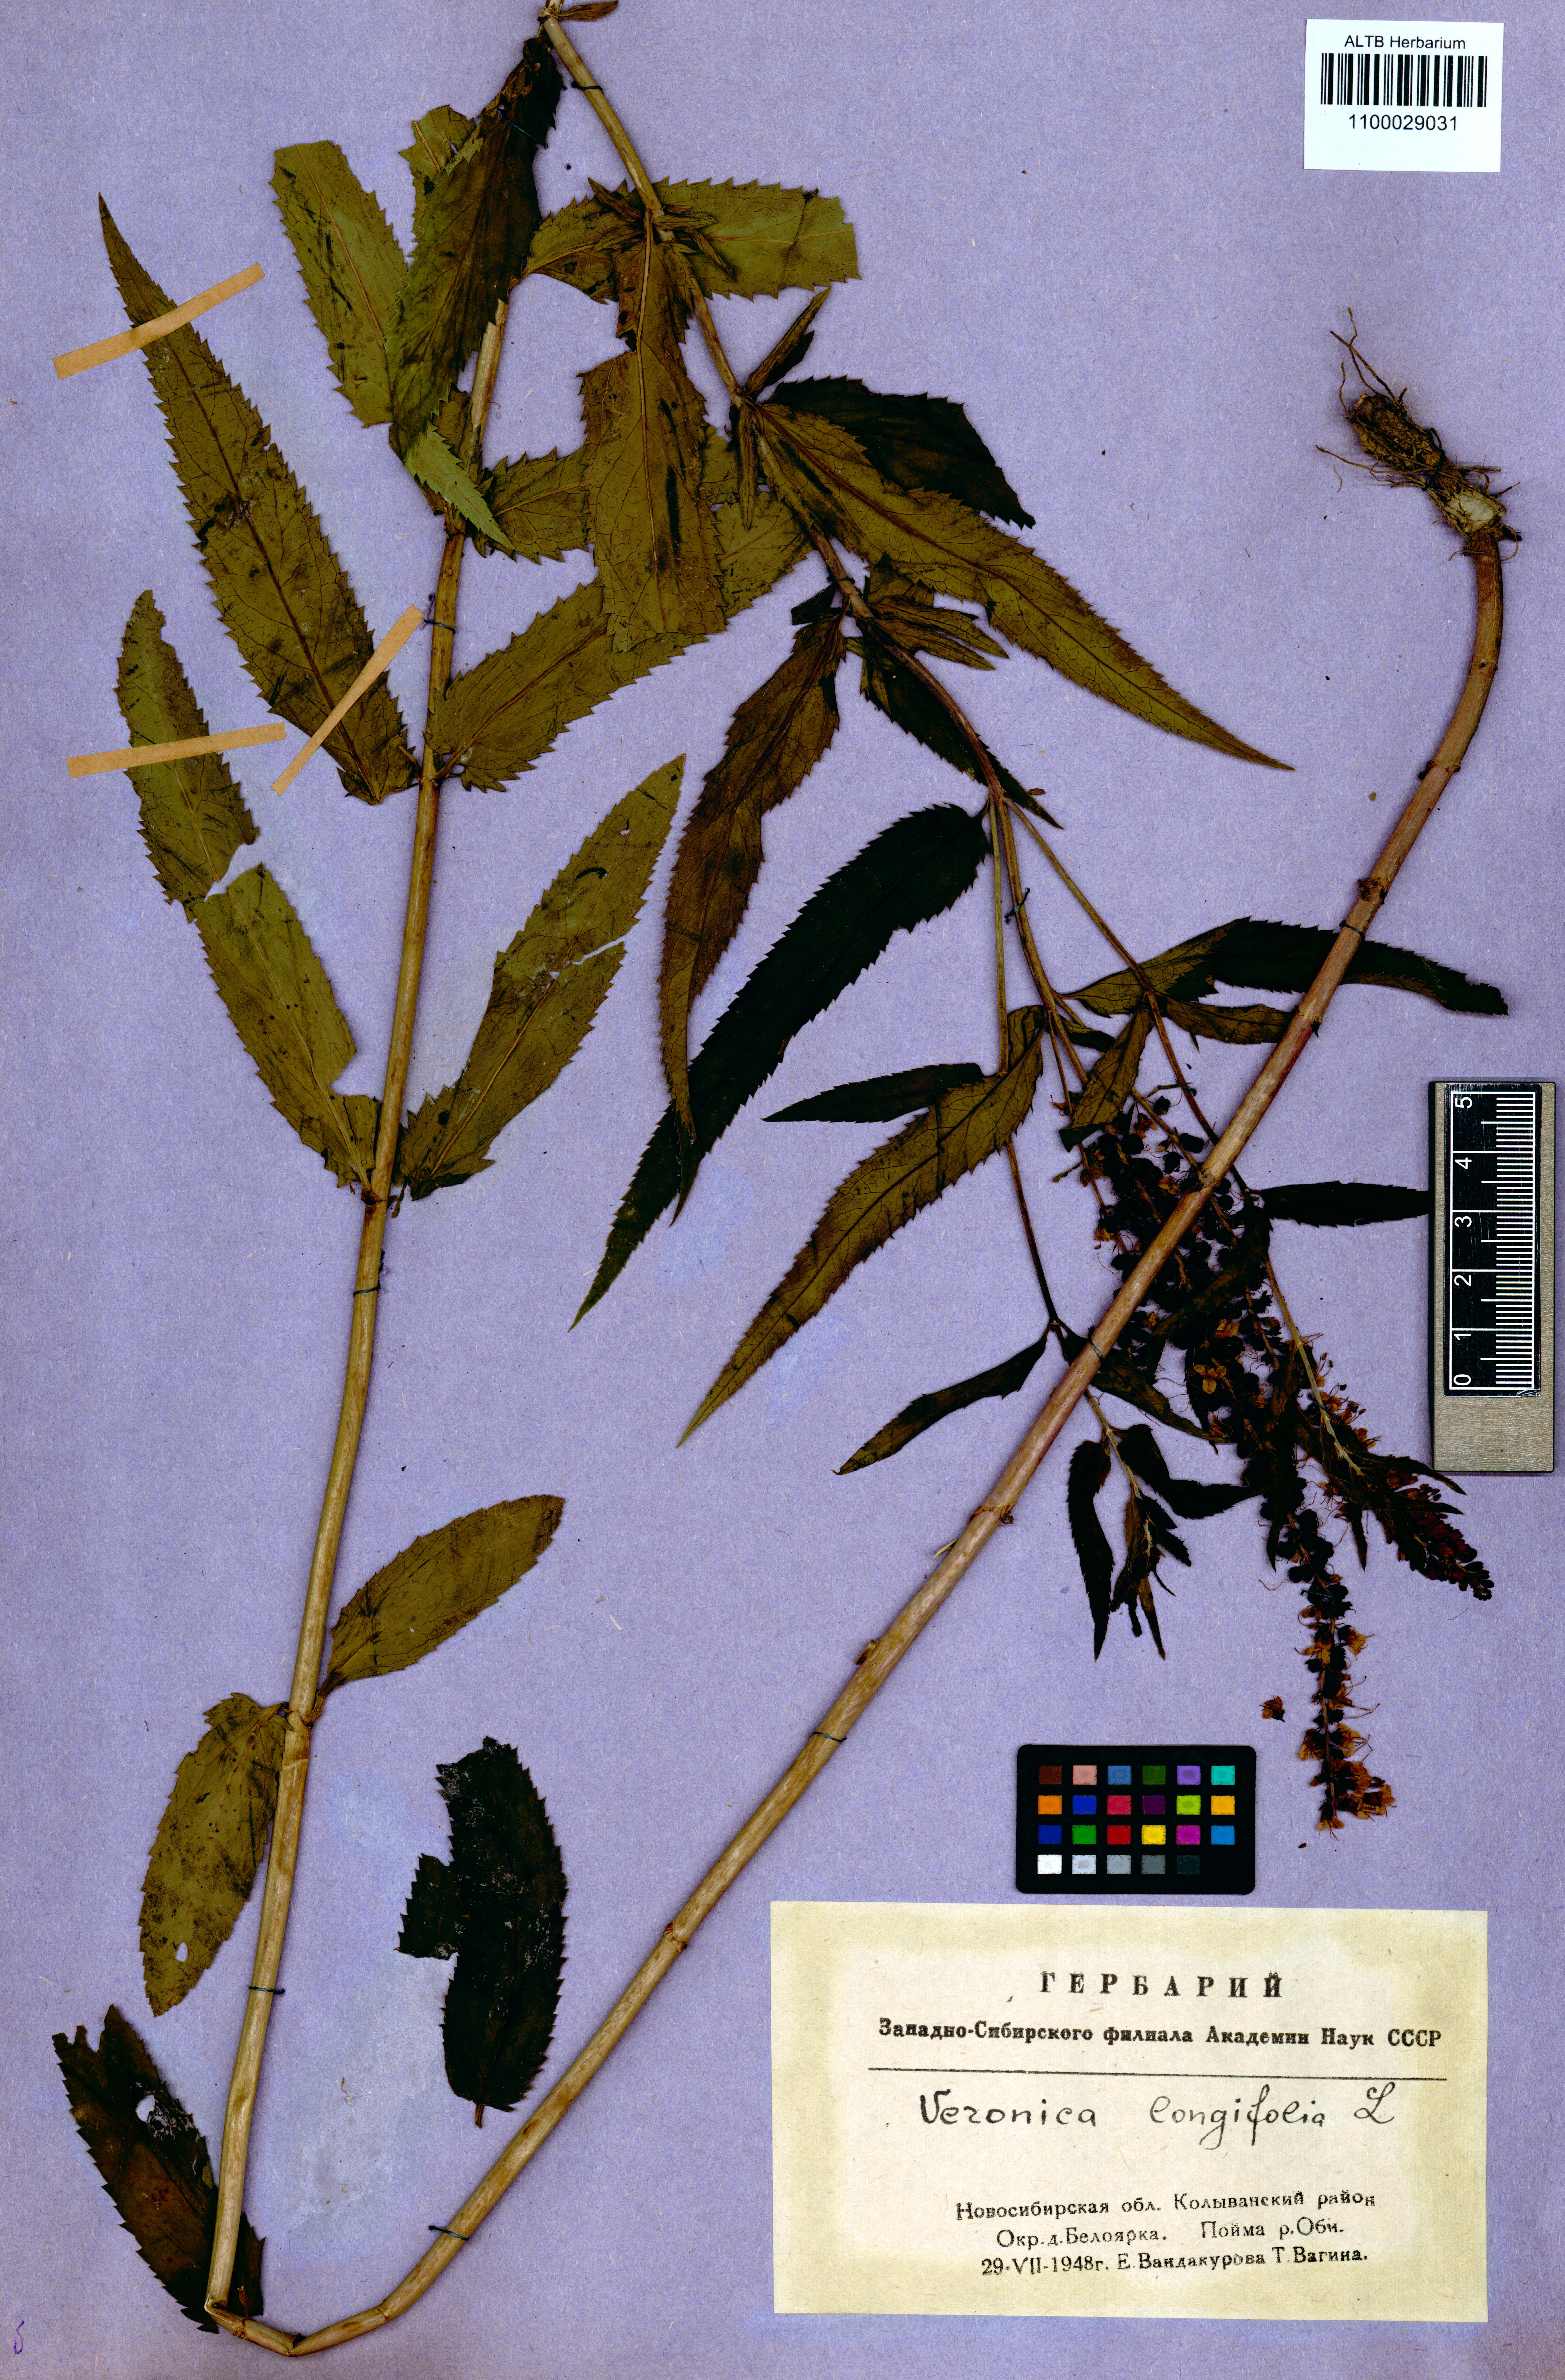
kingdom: Plantae
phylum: Tracheophyta
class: Magnoliopsida
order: Lamiales
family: Plantaginaceae
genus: Veronica
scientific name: Veronica longifolia
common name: Garden speedwell
